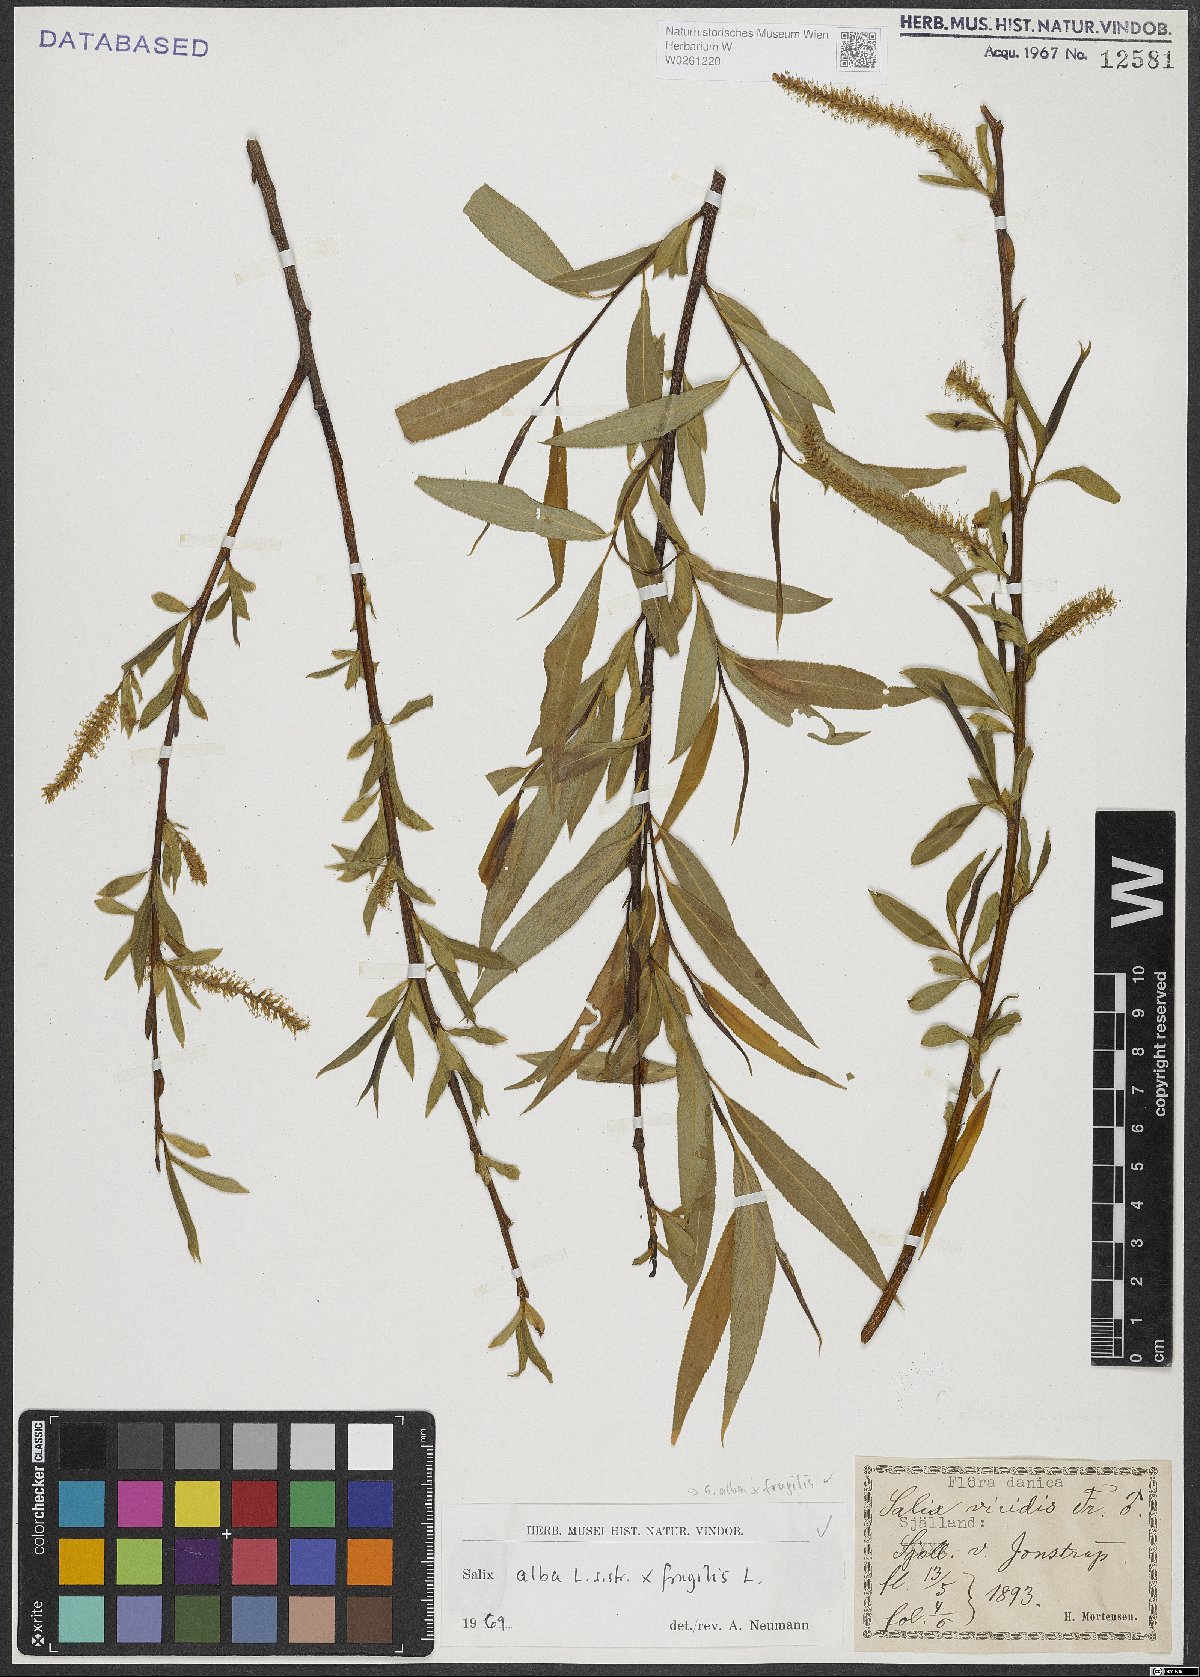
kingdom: Plantae
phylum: Tracheophyta
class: Magnoliopsida
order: Malpighiales
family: Salicaceae
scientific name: Salicaceae
